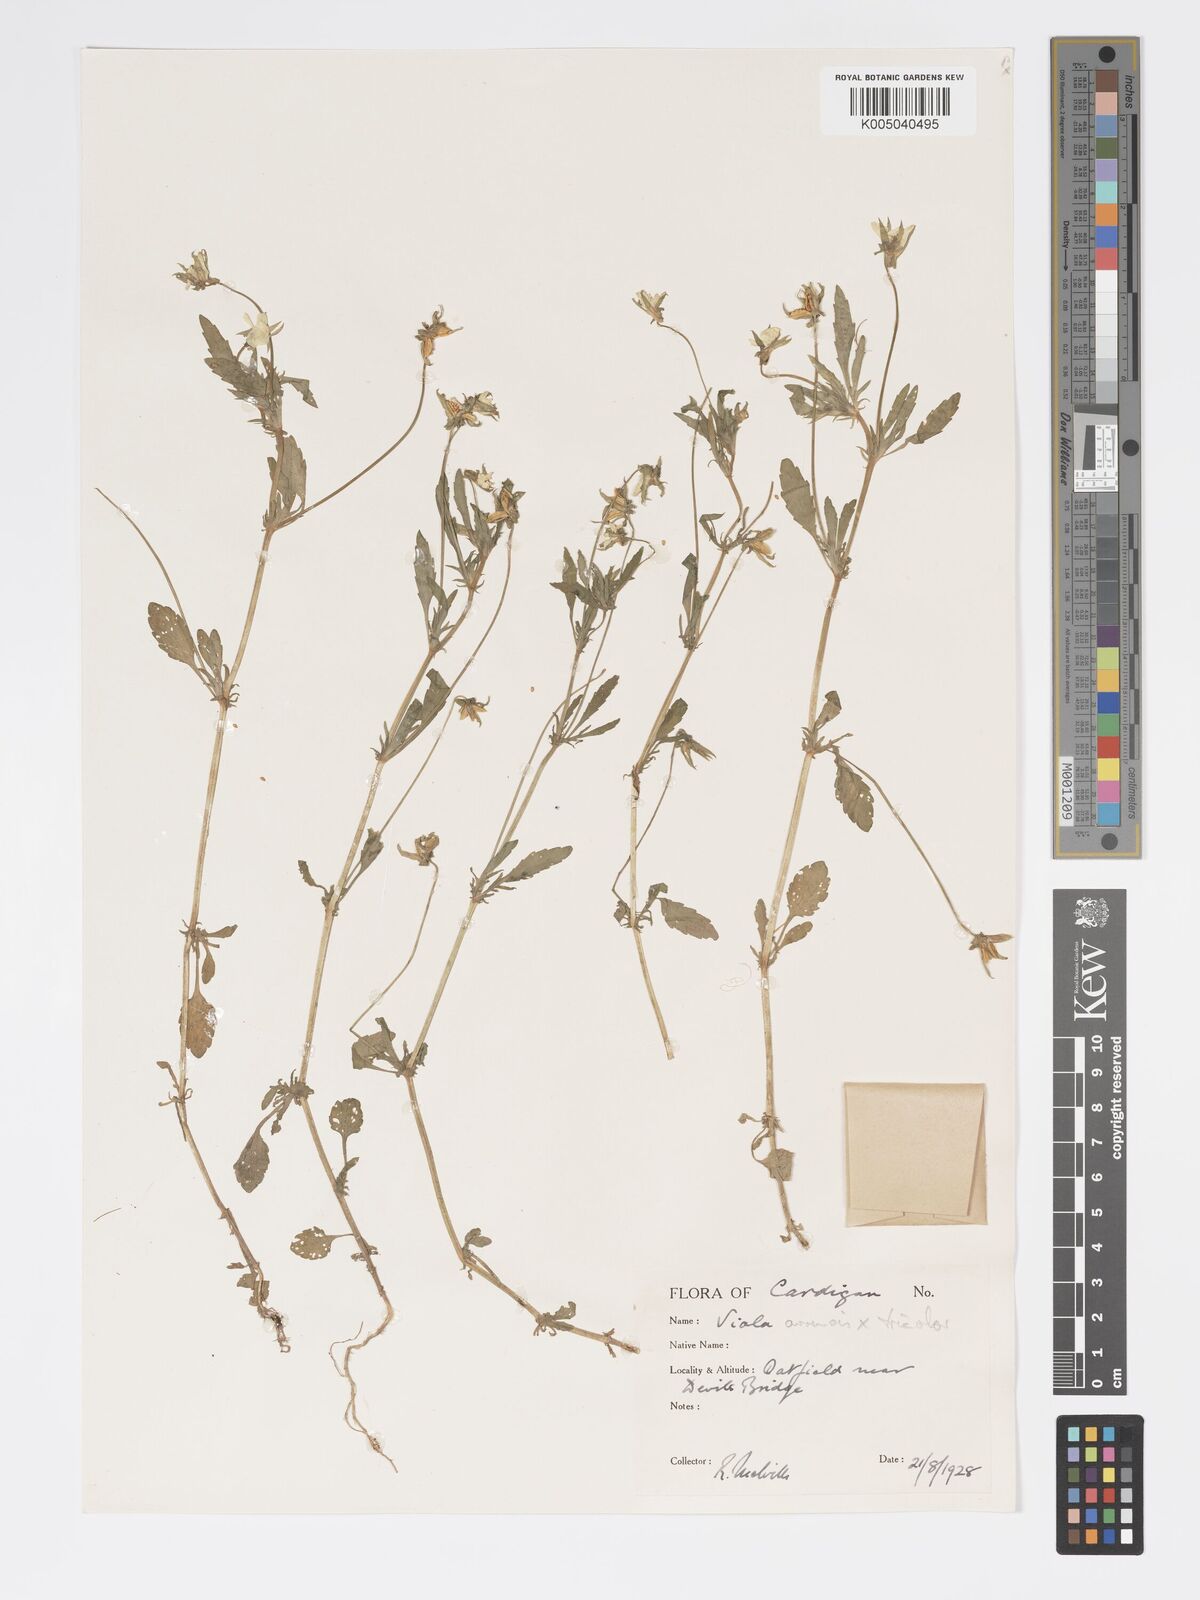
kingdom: Plantae
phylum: Tracheophyta
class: Magnoliopsida
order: Malpighiales
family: Violaceae
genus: Viola
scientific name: Viola arvensis
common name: Field pansy
